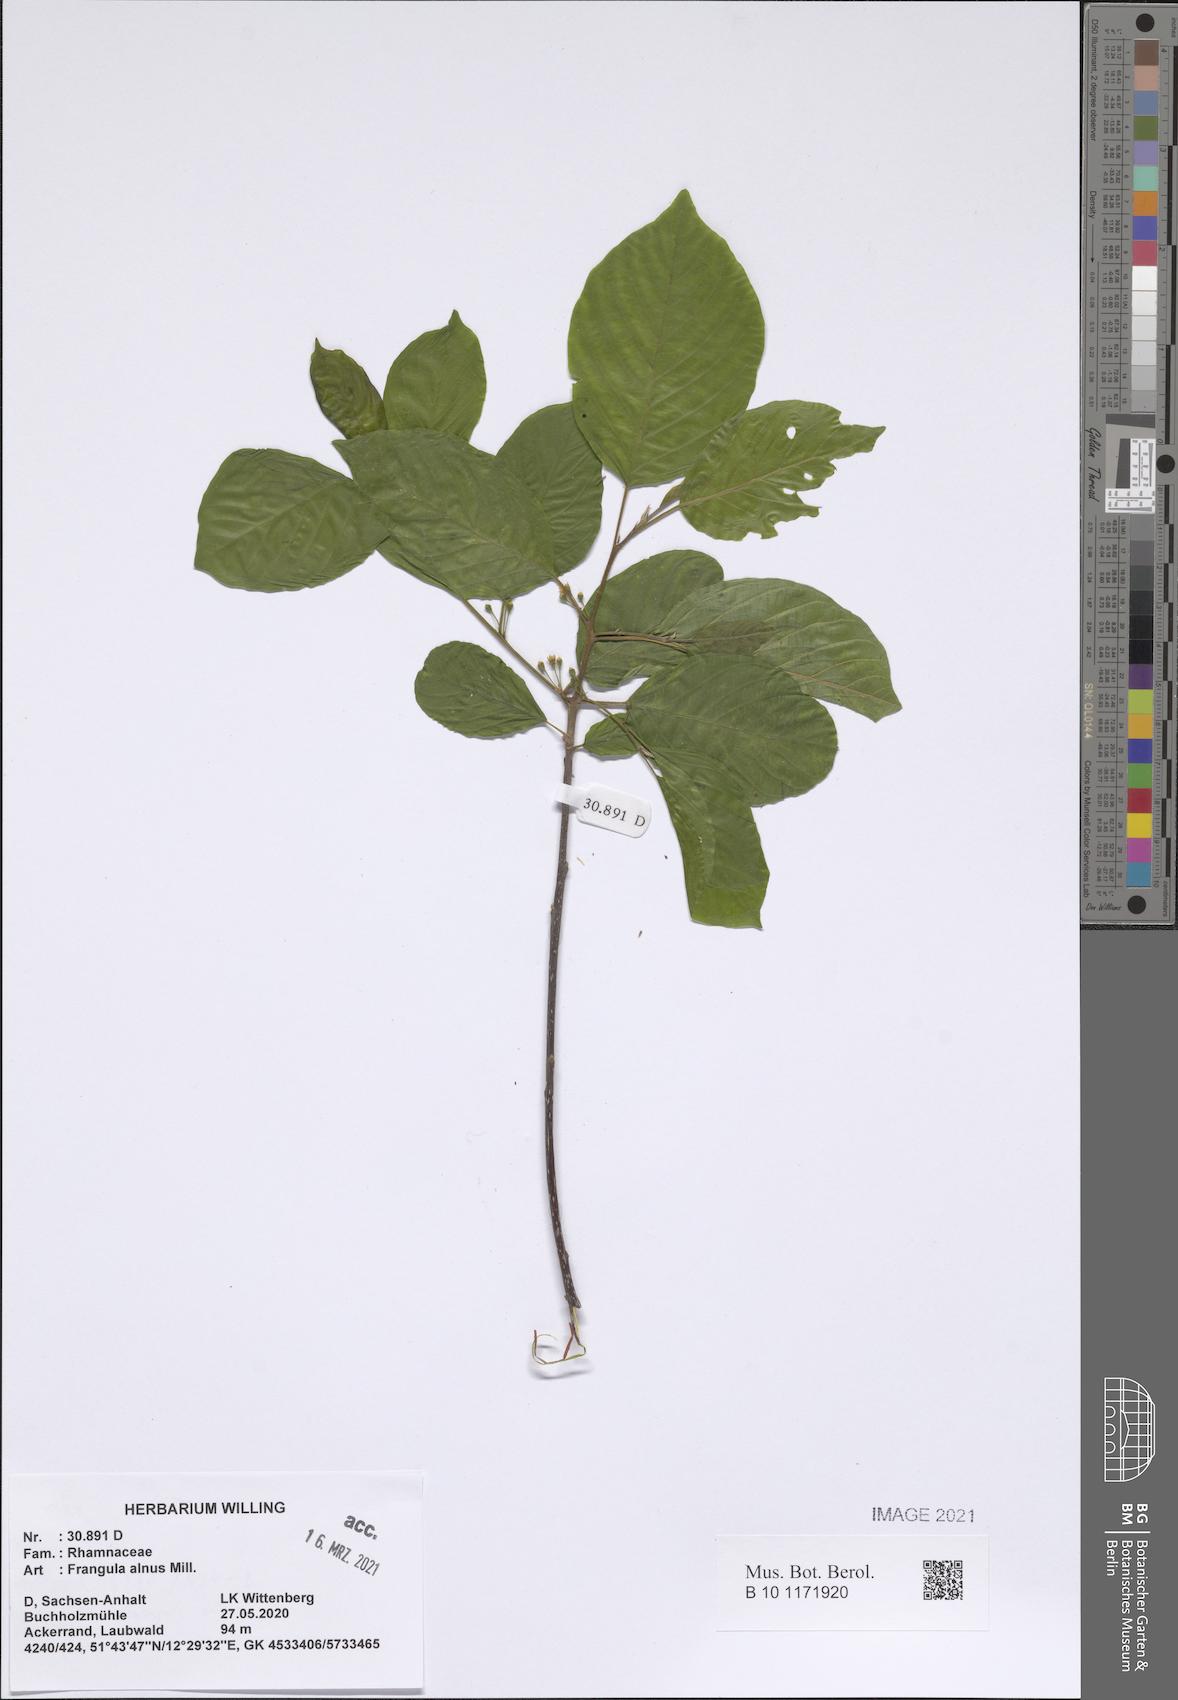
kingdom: Plantae
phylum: Tracheophyta
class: Magnoliopsida
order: Rosales
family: Rhamnaceae
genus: Frangula
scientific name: Frangula alnus
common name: Alder buckthorn
